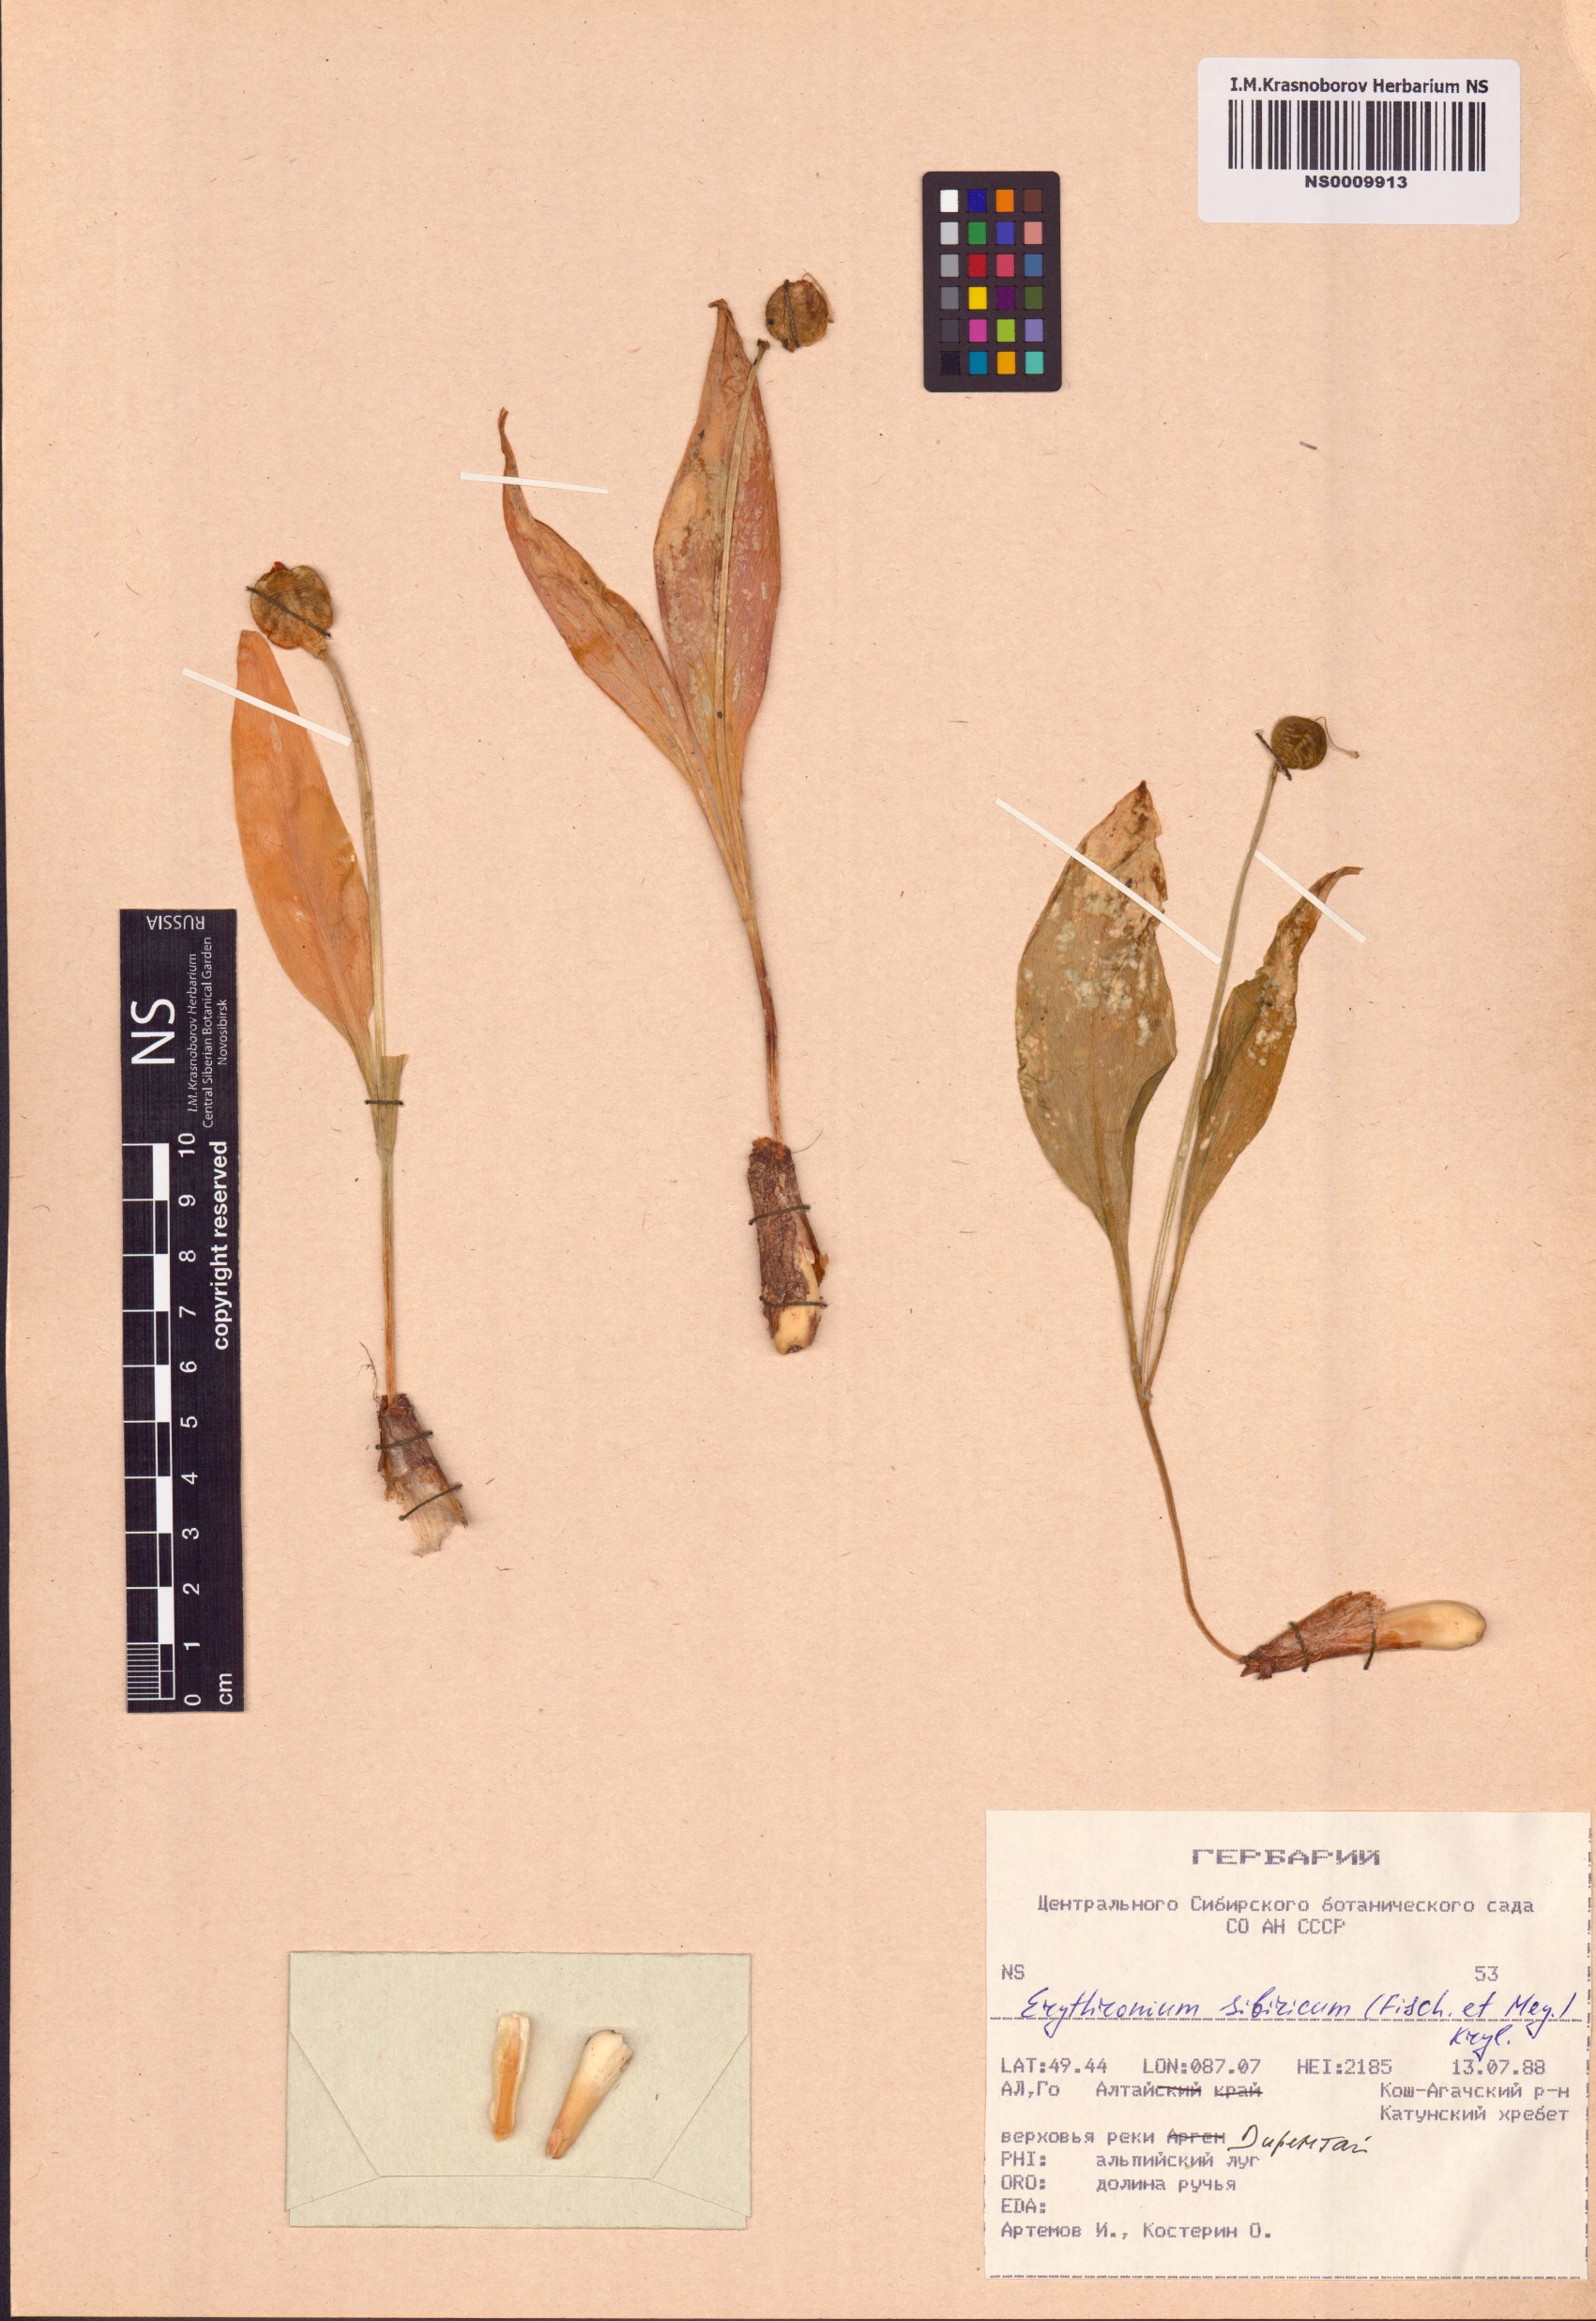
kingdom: Plantae
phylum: Tracheophyta
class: Liliopsida
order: Liliales
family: Liliaceae
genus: Erythronium
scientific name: Erythronium sibiricum
